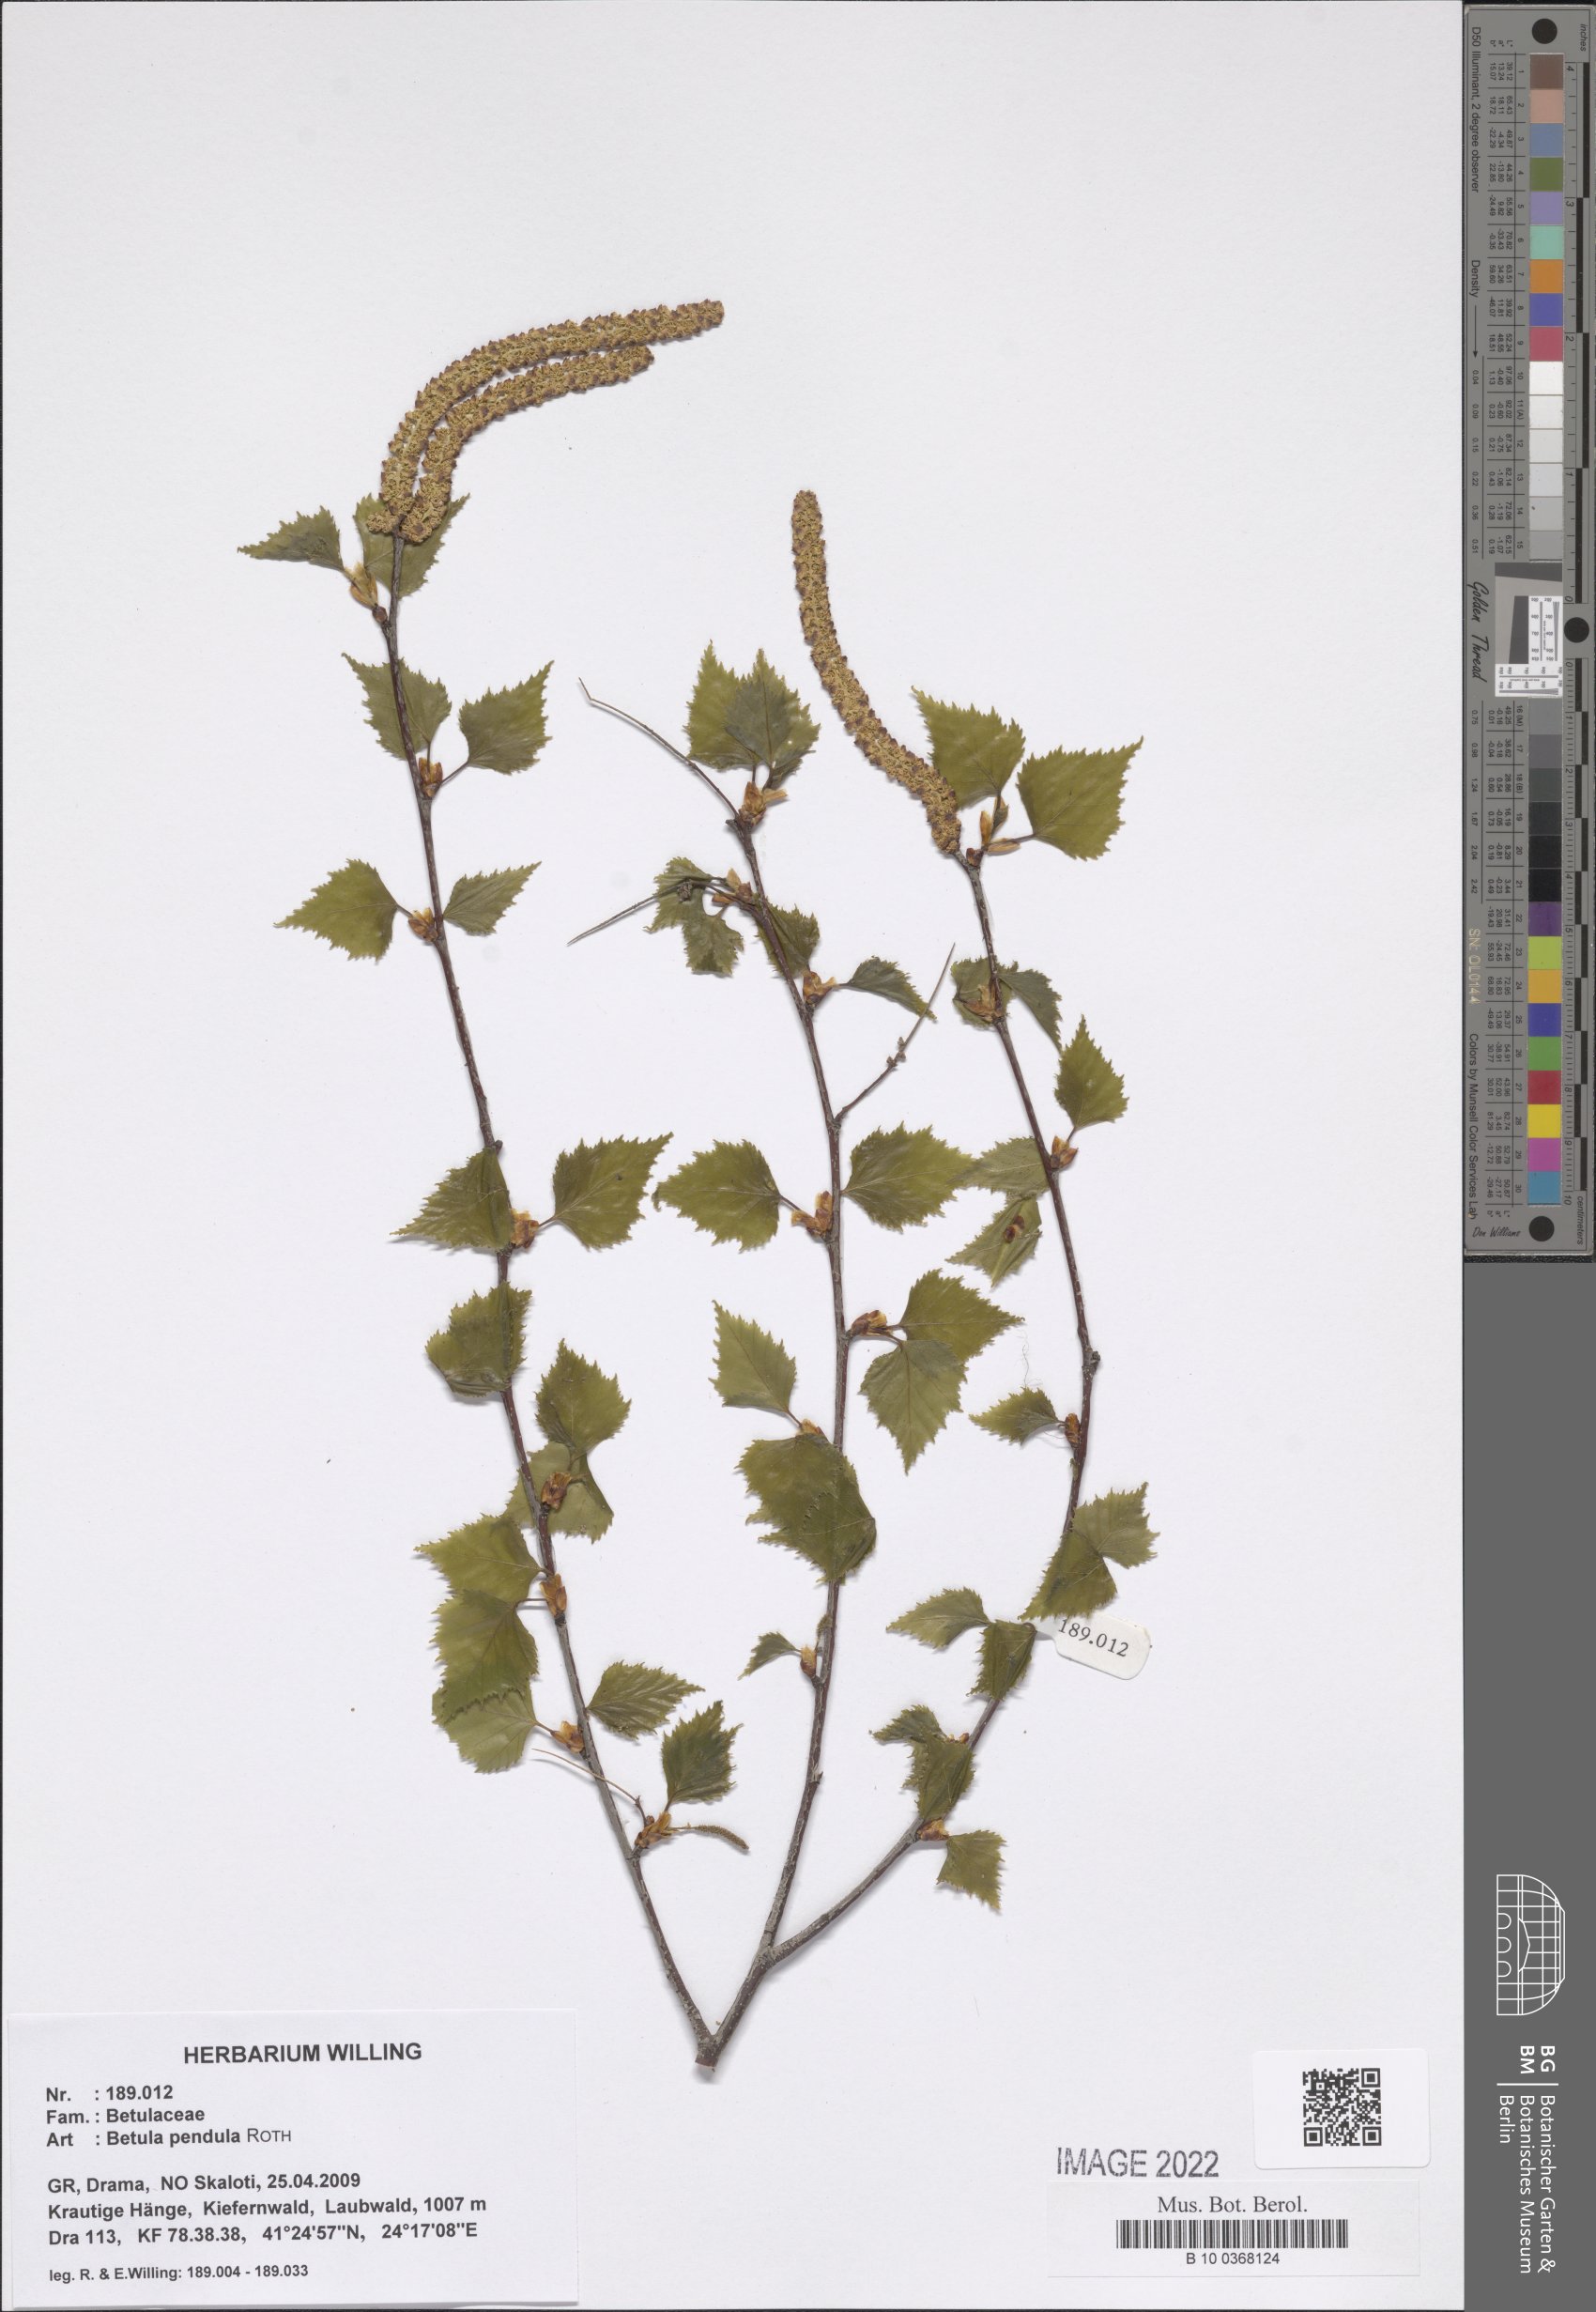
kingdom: Plantae
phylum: Tracheophyta
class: Magnoliopsida
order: Fagales
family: Betulaceae
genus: Betula
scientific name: Betula pendula
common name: Silver birch
